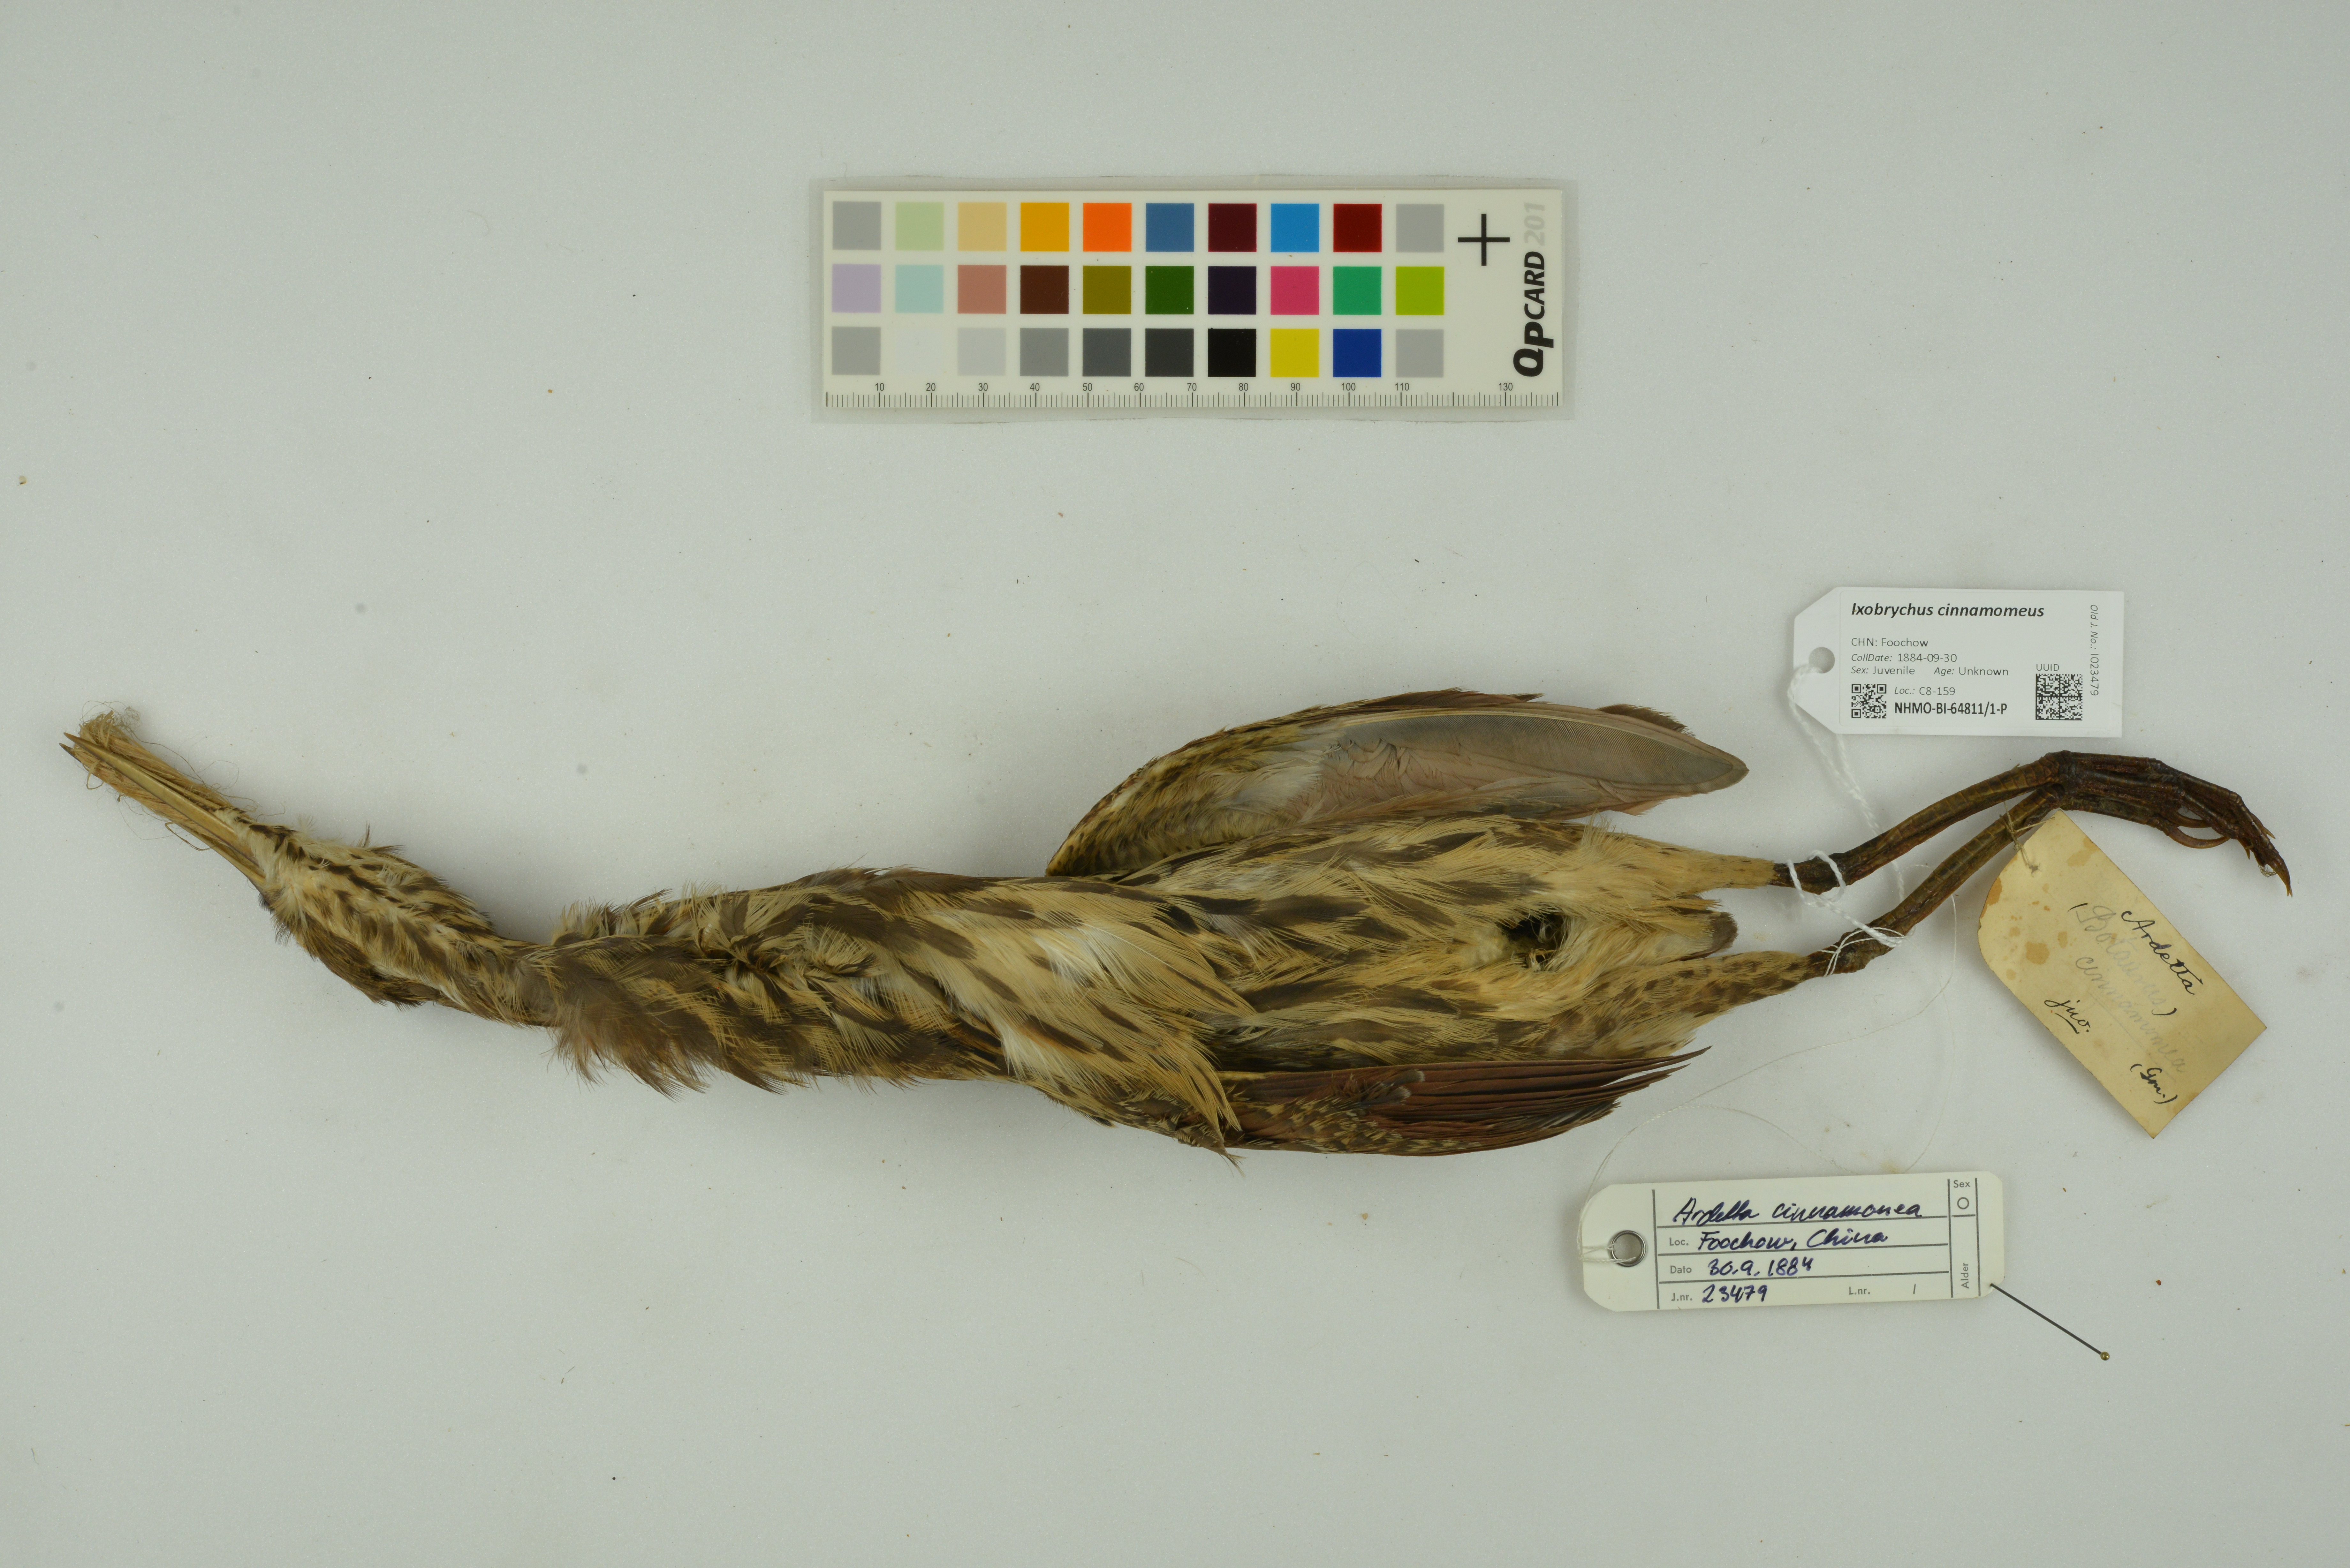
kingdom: Animalia
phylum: Chordata
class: Aves
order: Pelecaniformes
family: Ardeidae
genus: Ixobrychus
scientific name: Ixobrychus cinnamomeus
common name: Cinnamon bittern
